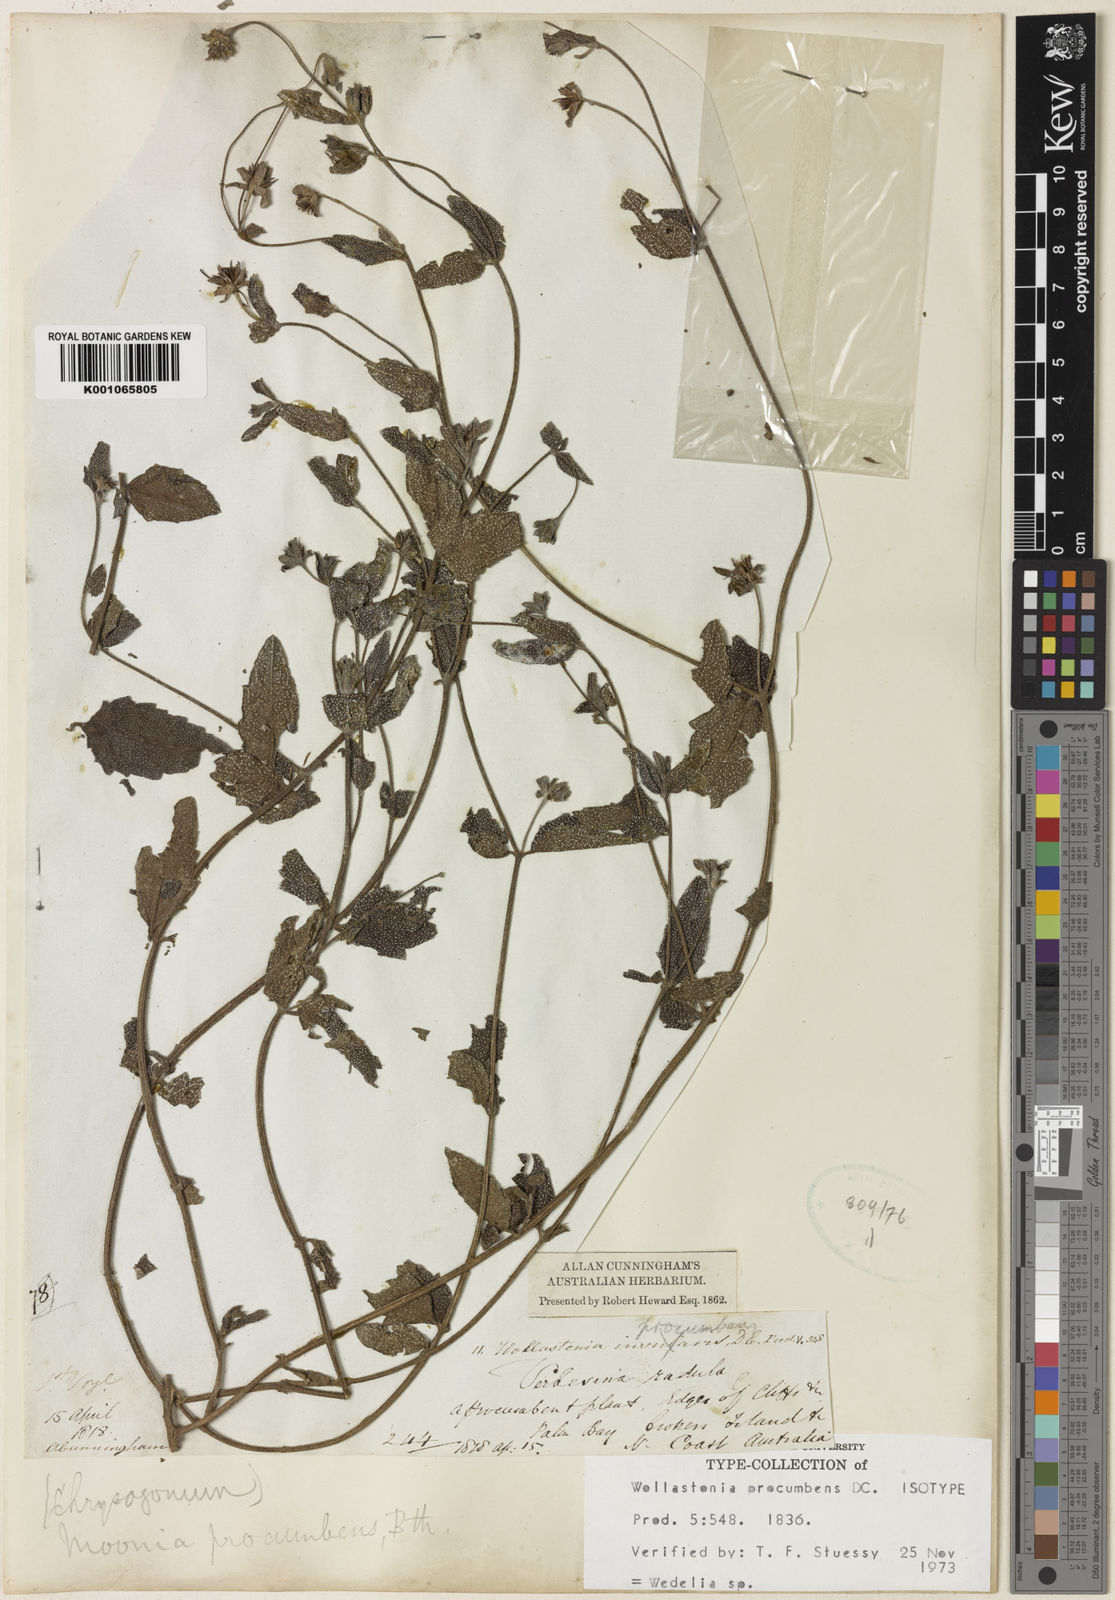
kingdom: Plantae
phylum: Tracheophyta
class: Magnoliopsida
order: Asterales
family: Asteraceae
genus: Wedelia
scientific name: Wedelia
